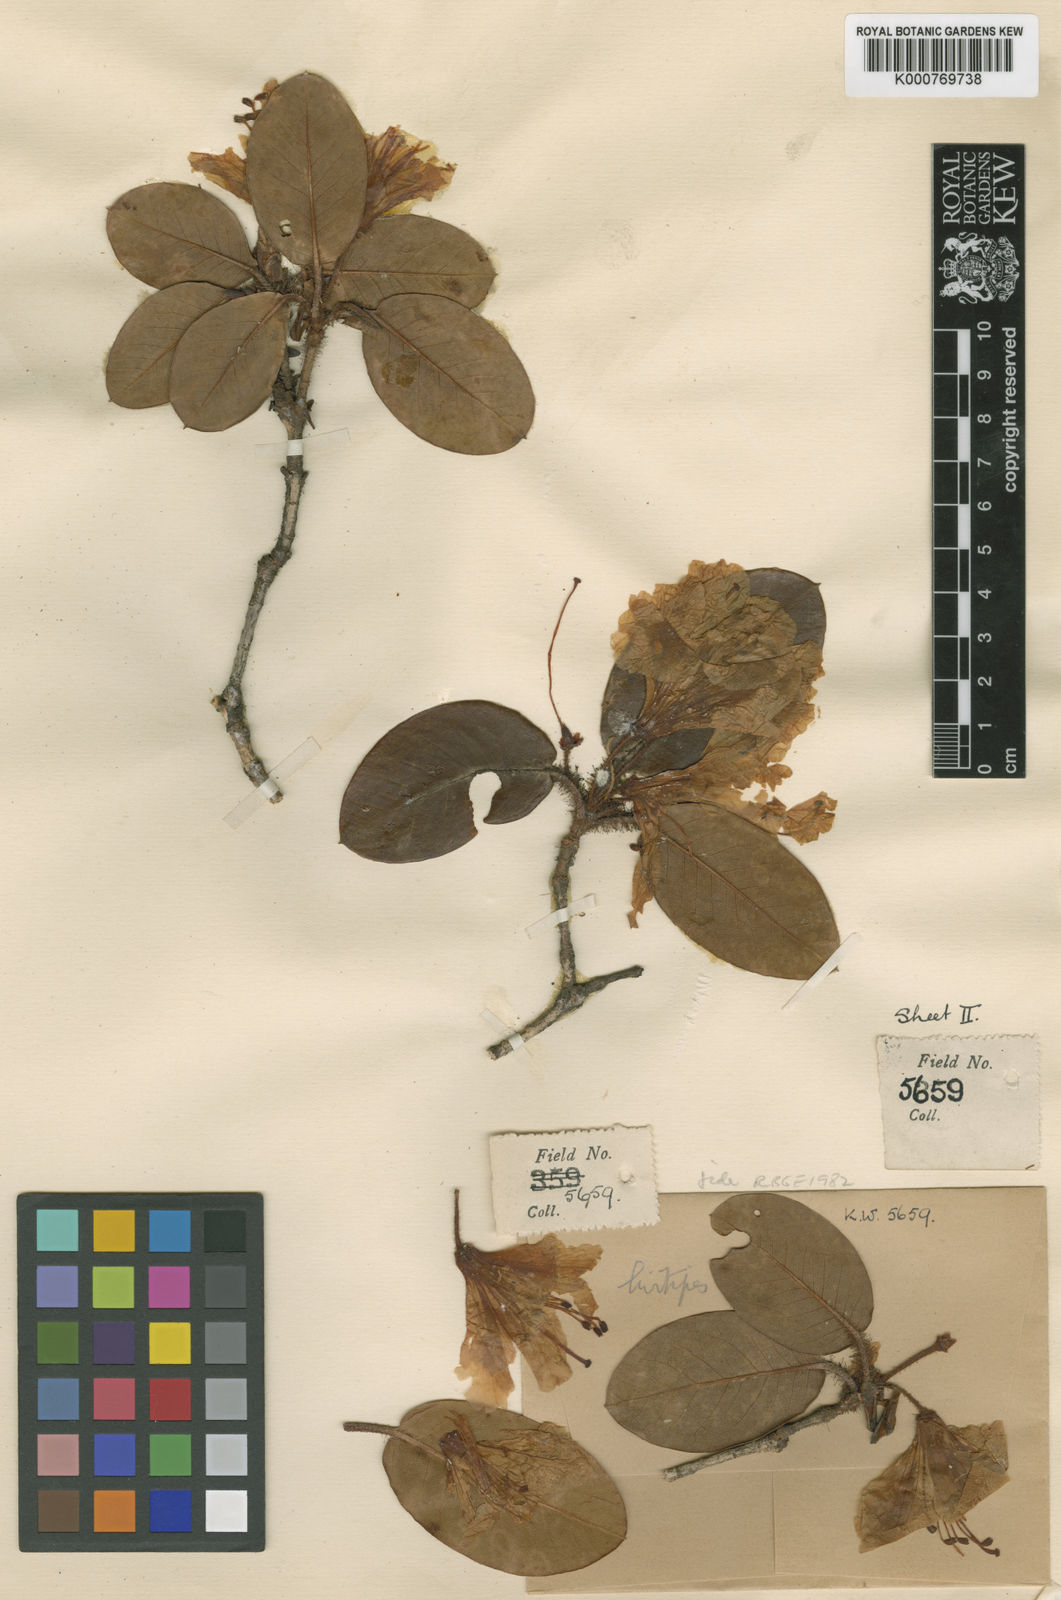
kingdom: Plantae
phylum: Tracheophyta
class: Magnoliopsida
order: Ericales
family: Ericaceae
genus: Rhododendron
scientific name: Rhododendron hirtipes
